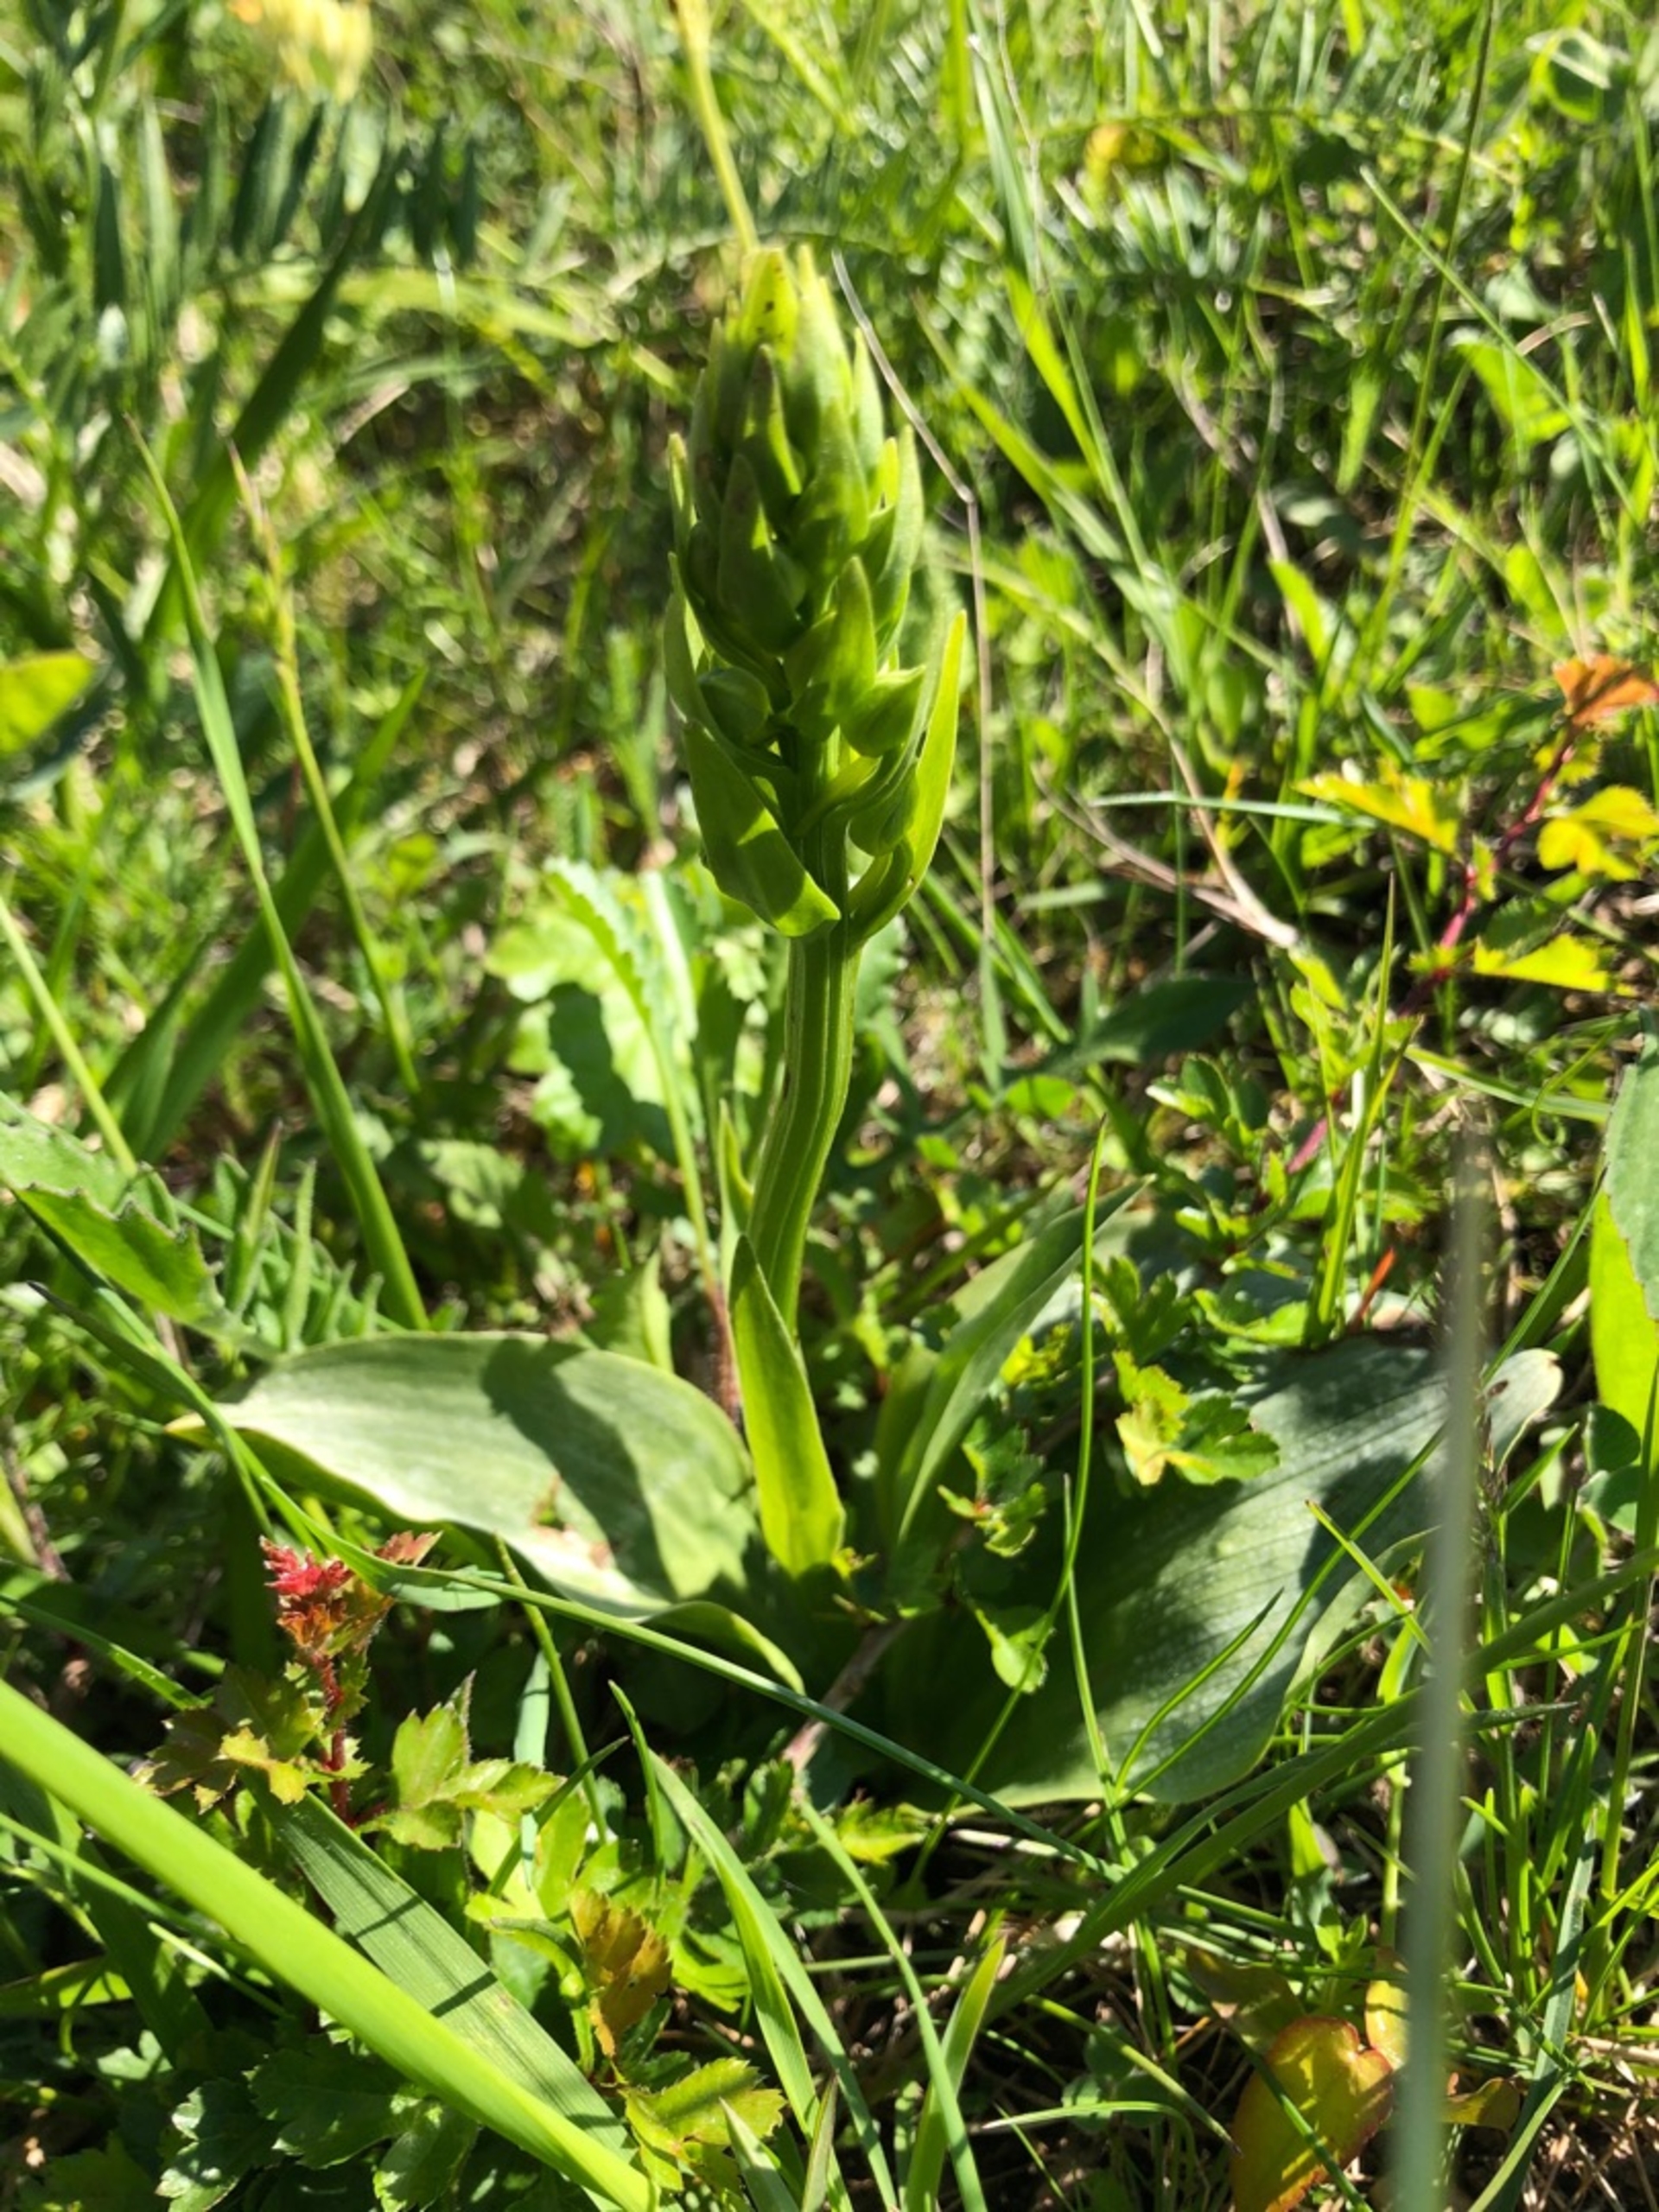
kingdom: Plantae
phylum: Tracheophyta
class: Liliopsida
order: Asparagales
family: Orchidaceae
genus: Platanthera
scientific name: Platanthera chlorantha
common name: Skov-gøgelilje
